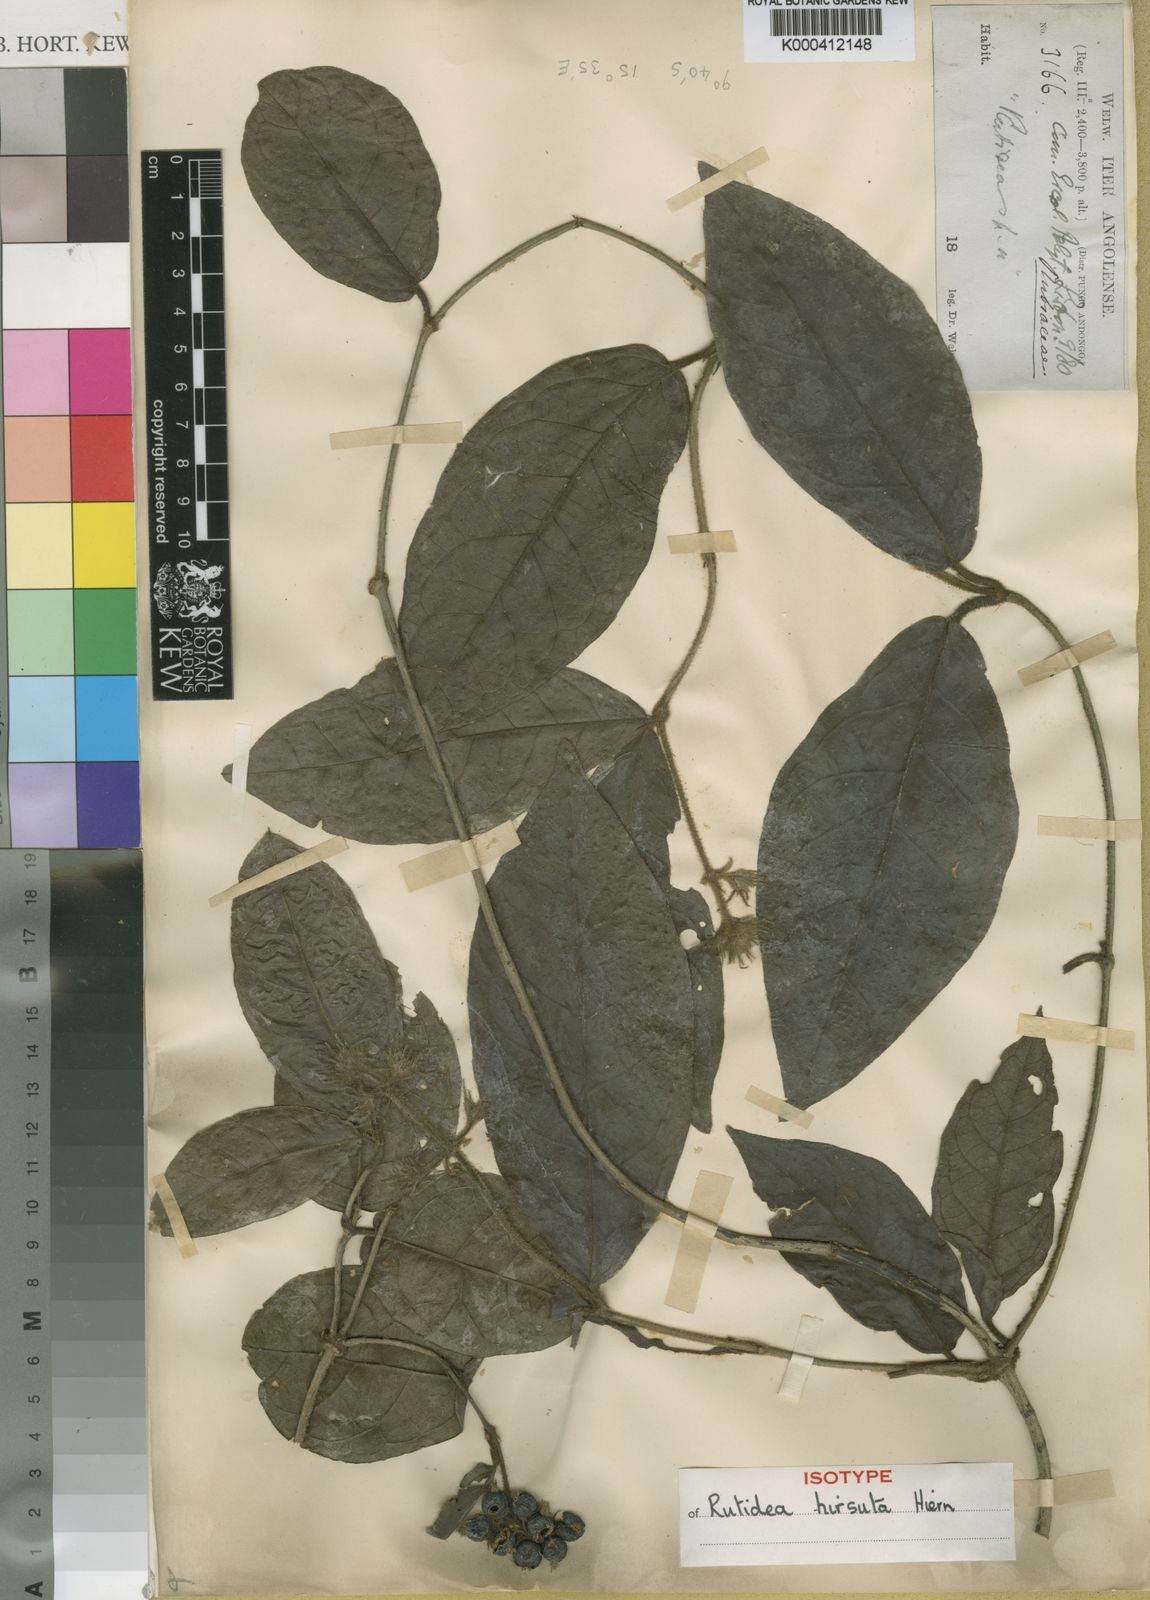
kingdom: Plantae
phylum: Tracheophyta
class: Magnoliopsida
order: Gentianales
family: Rubiaceae
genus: Rutidea
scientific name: Rutidea hirsuta
